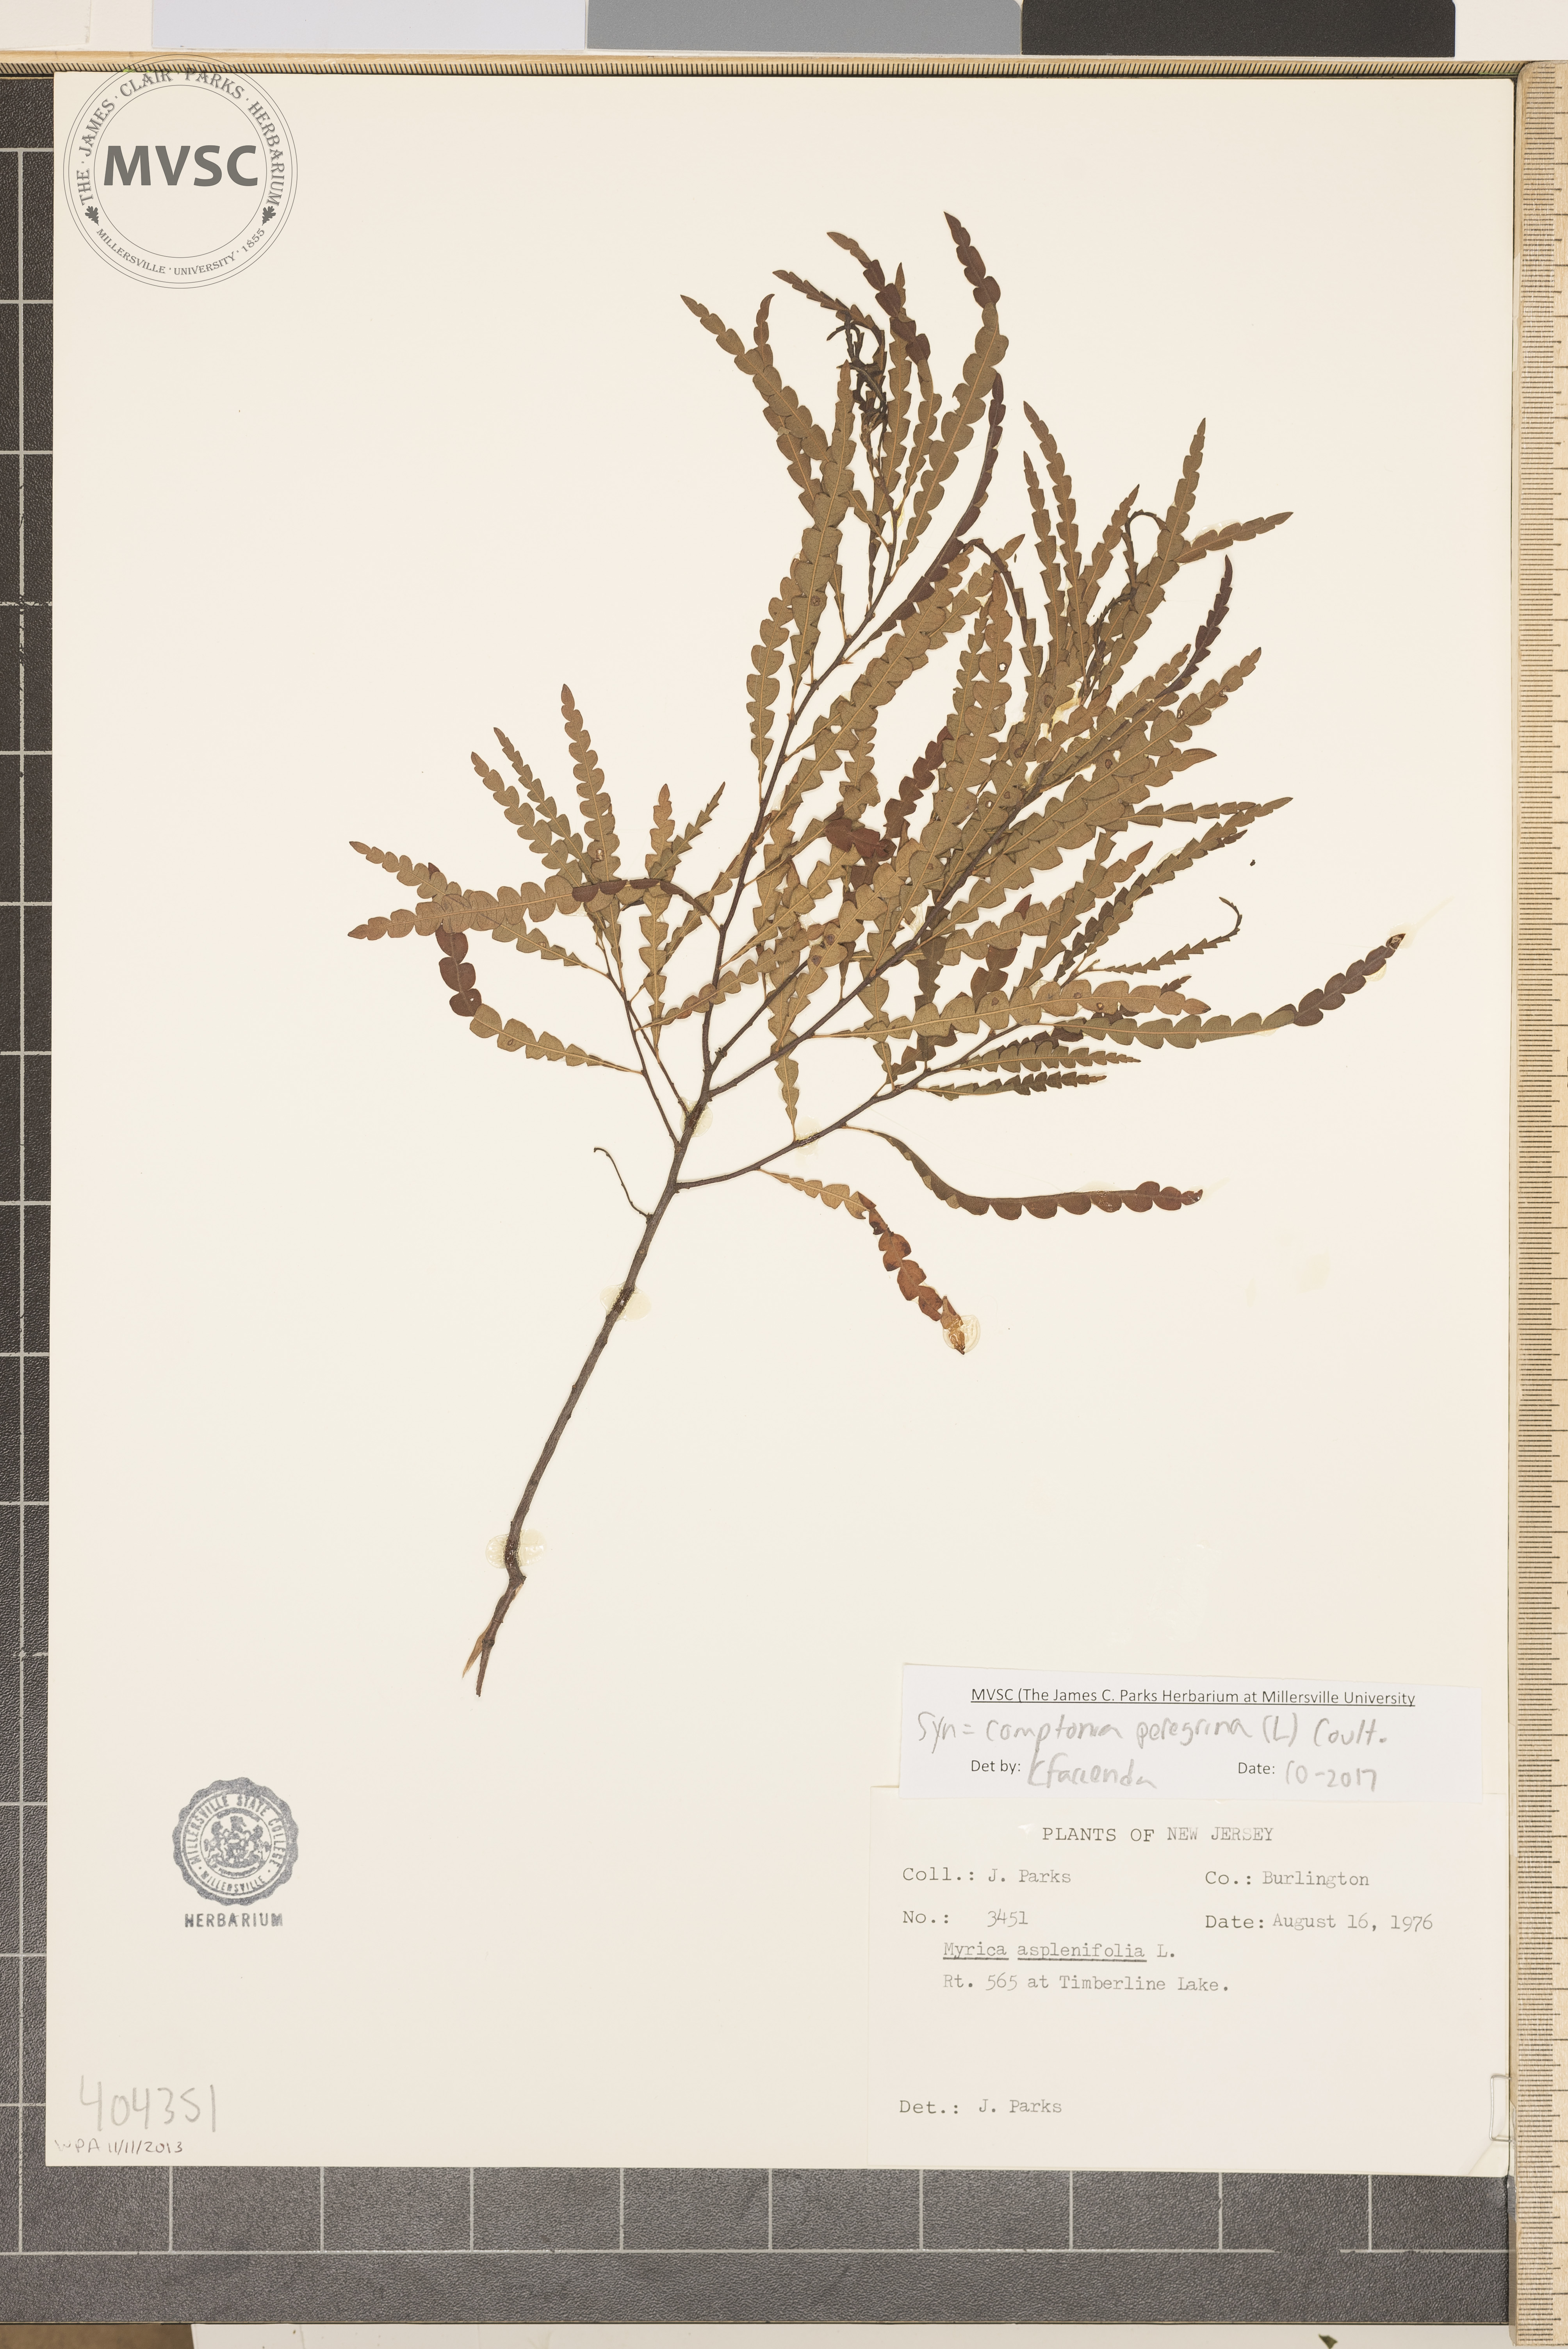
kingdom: Plantae
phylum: Tracheophyta
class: Magnoliopsida
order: Fagales
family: Myricaceae
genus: Comptonia
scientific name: Comptonia peregrina
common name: Sweetfern
